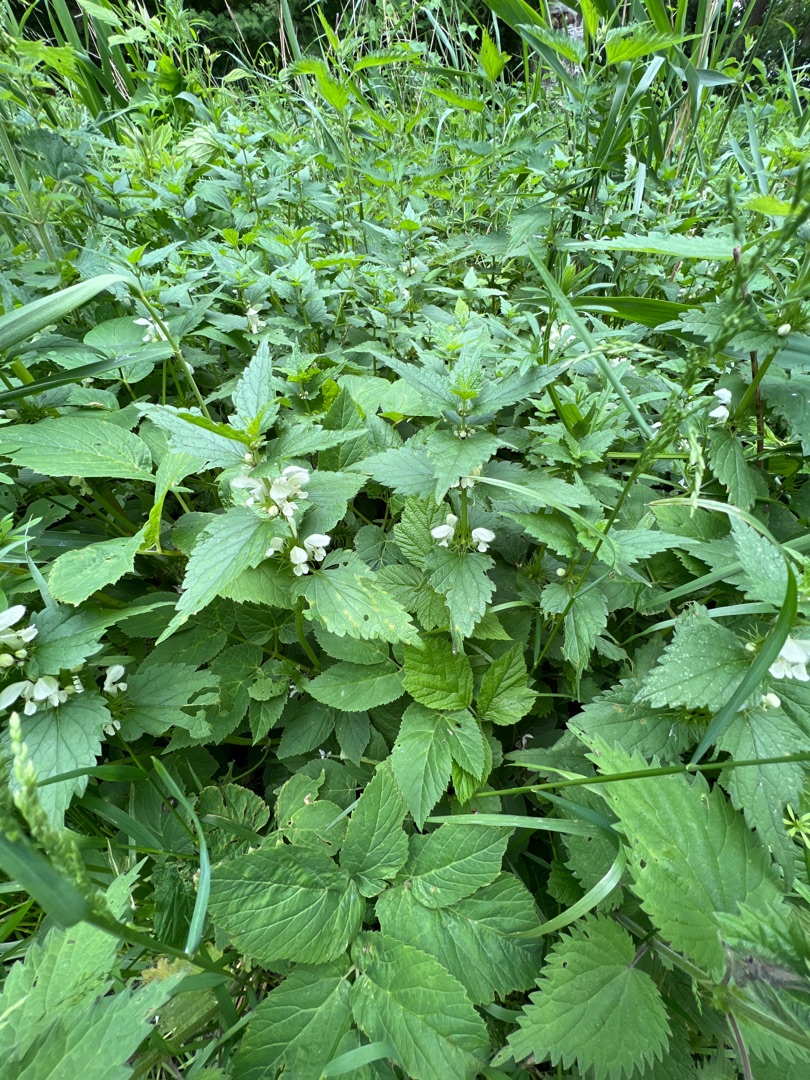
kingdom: Plantae
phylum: Tracheophyta
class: Magnoliopsida
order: Lamiales
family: Lamiaceae
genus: Lamium
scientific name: Lamium album
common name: Døvnælde
